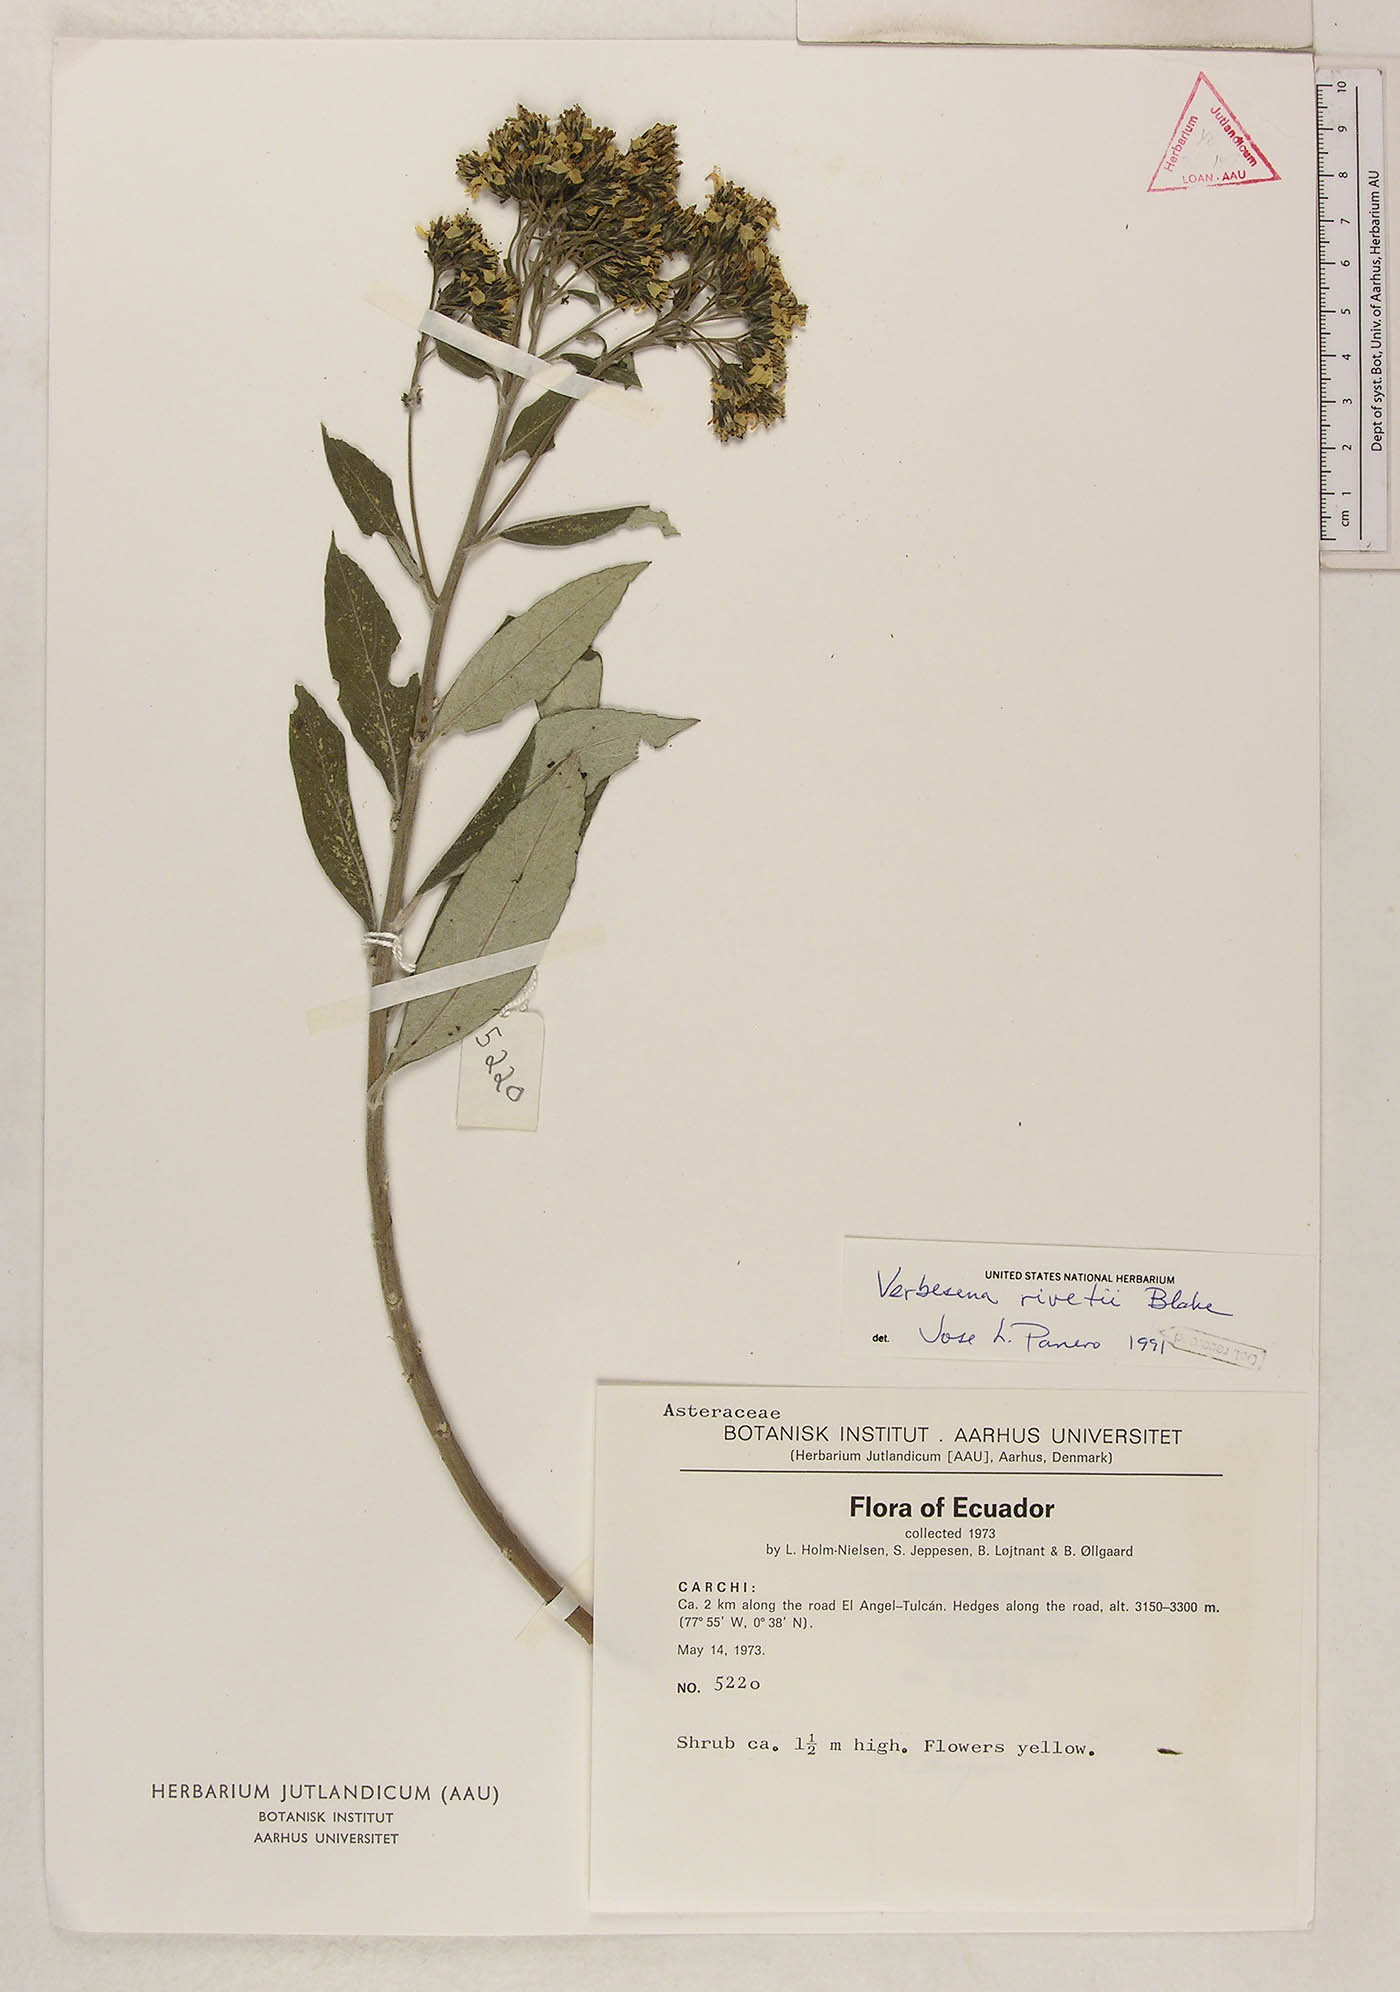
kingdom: Plantae
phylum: Tracheophyta
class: Magnoliopsida
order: Asterales
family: Asteraceae
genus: Verbesina
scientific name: Verbesina rivetii
